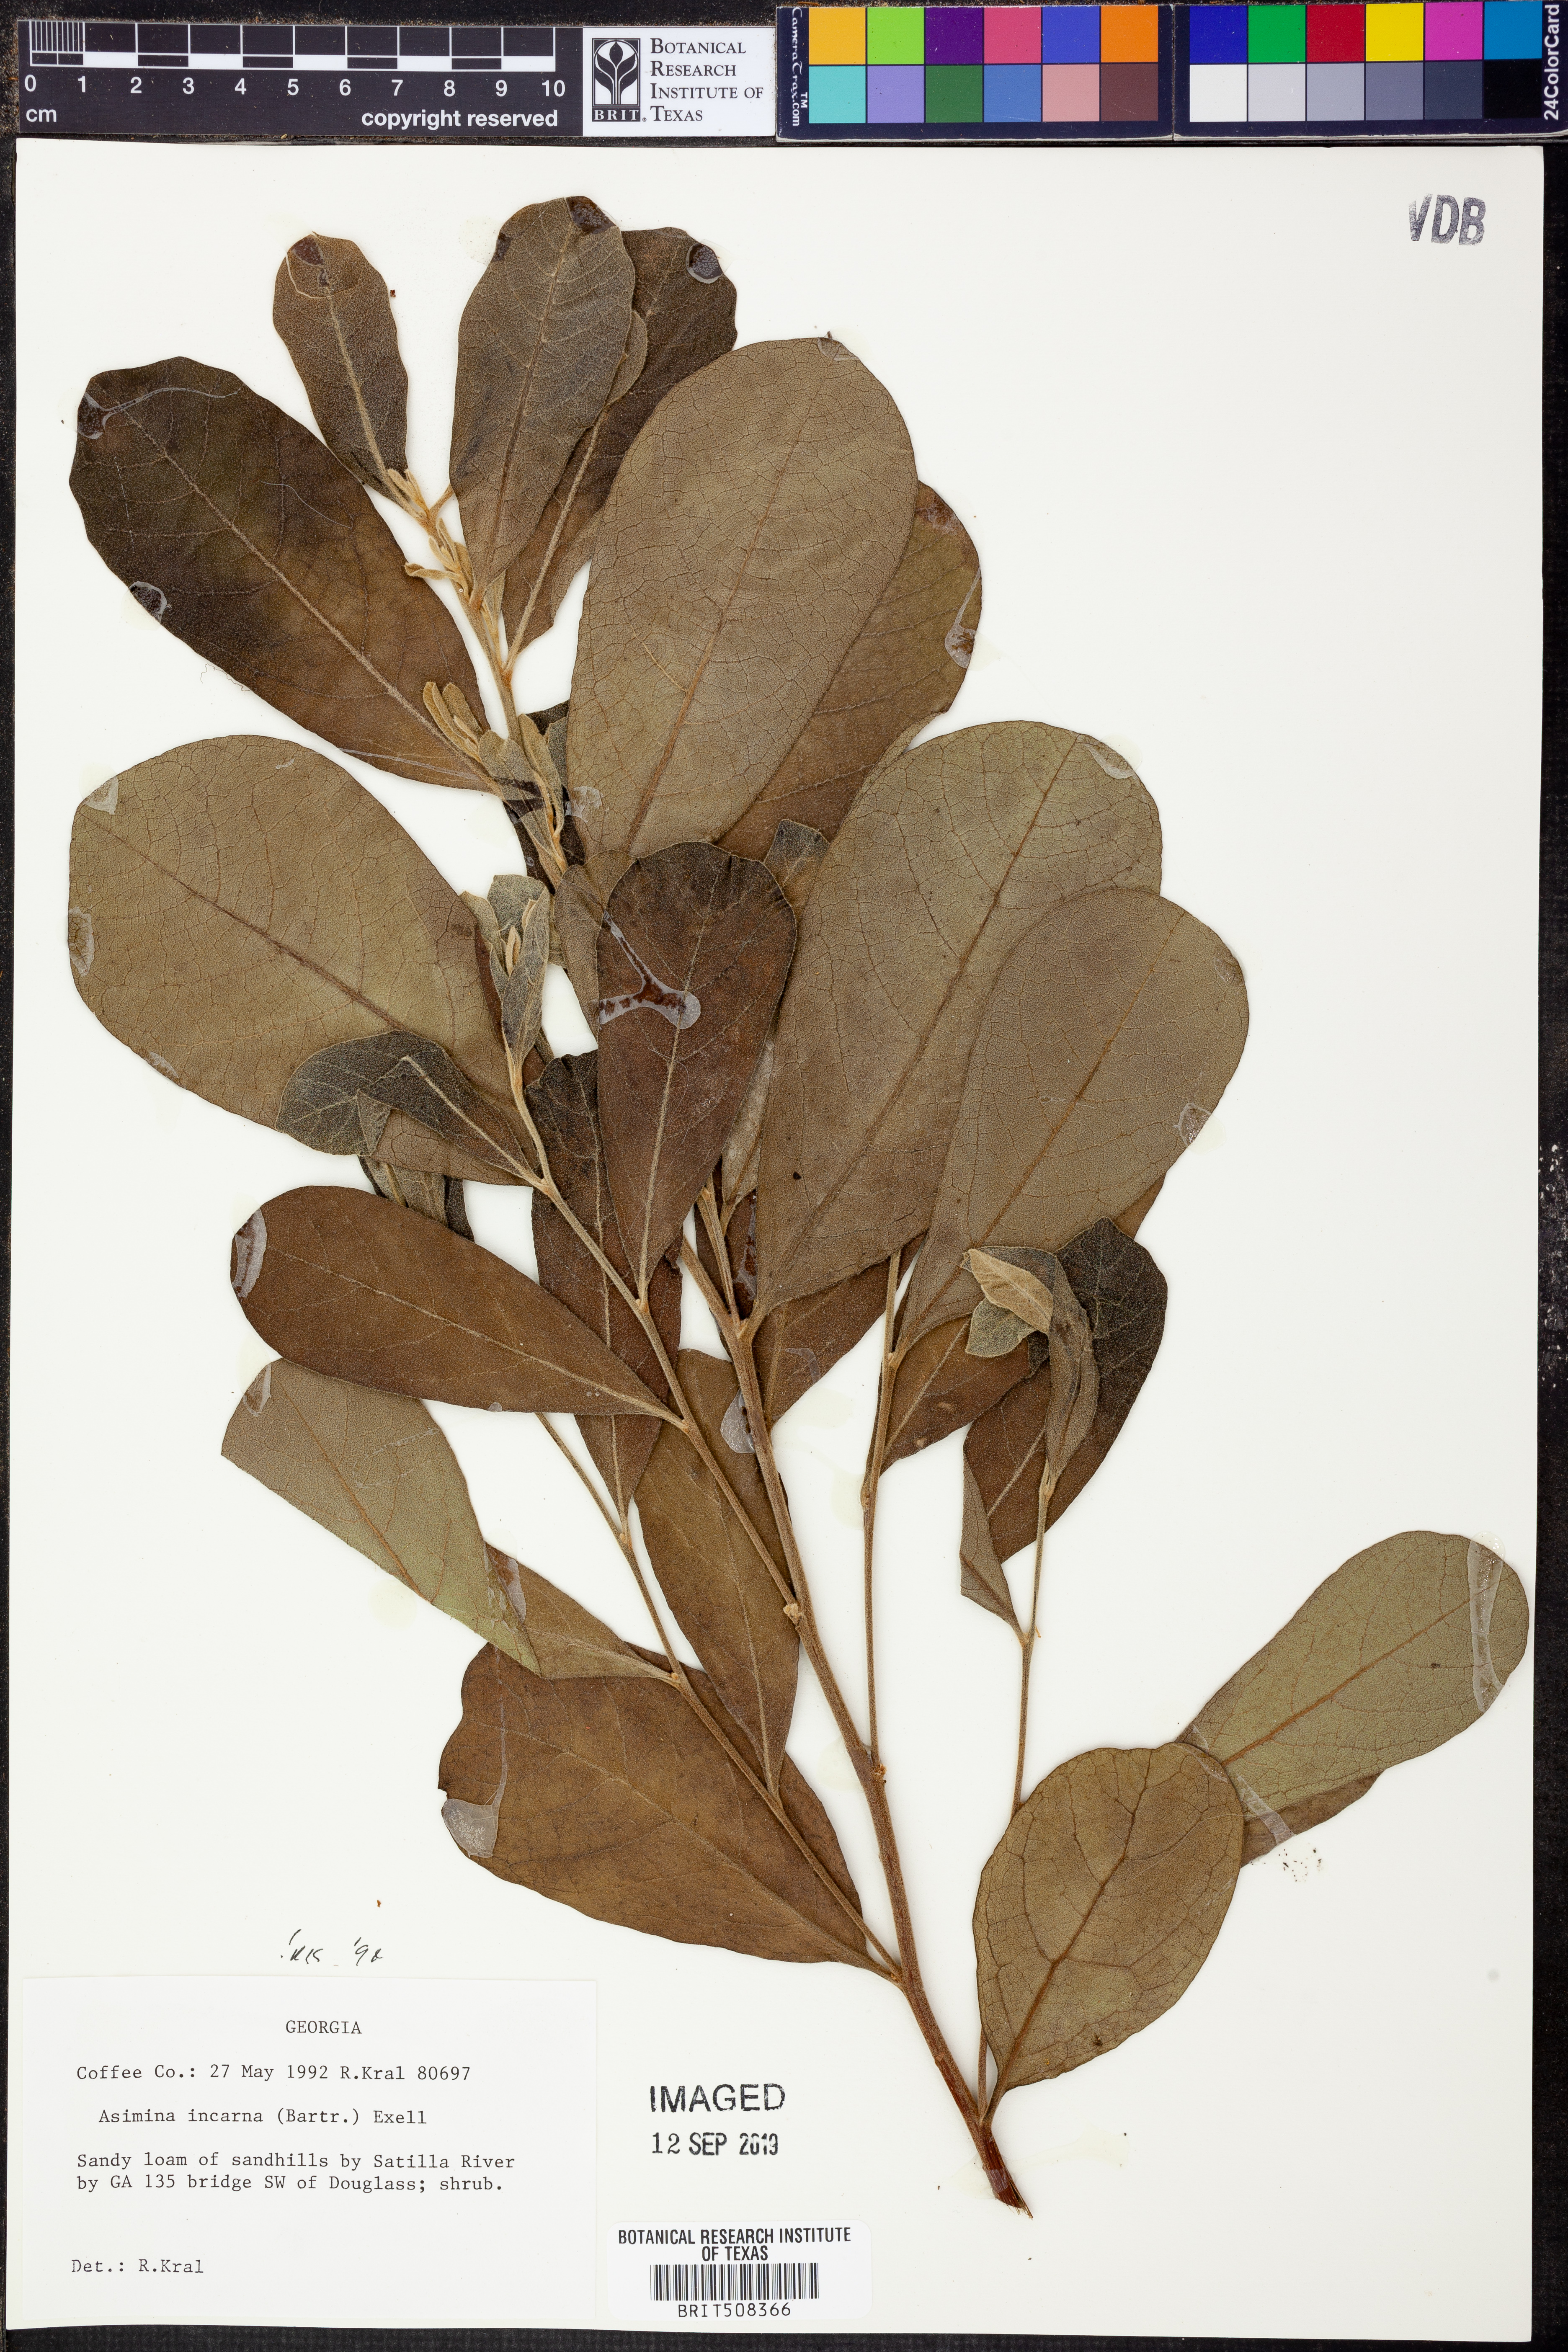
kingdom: Plantae
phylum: Tracheophyta
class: Magnoliopsida
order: Magnoliales
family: Annonaceae
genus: Asimina
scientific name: Asimina speciosa
